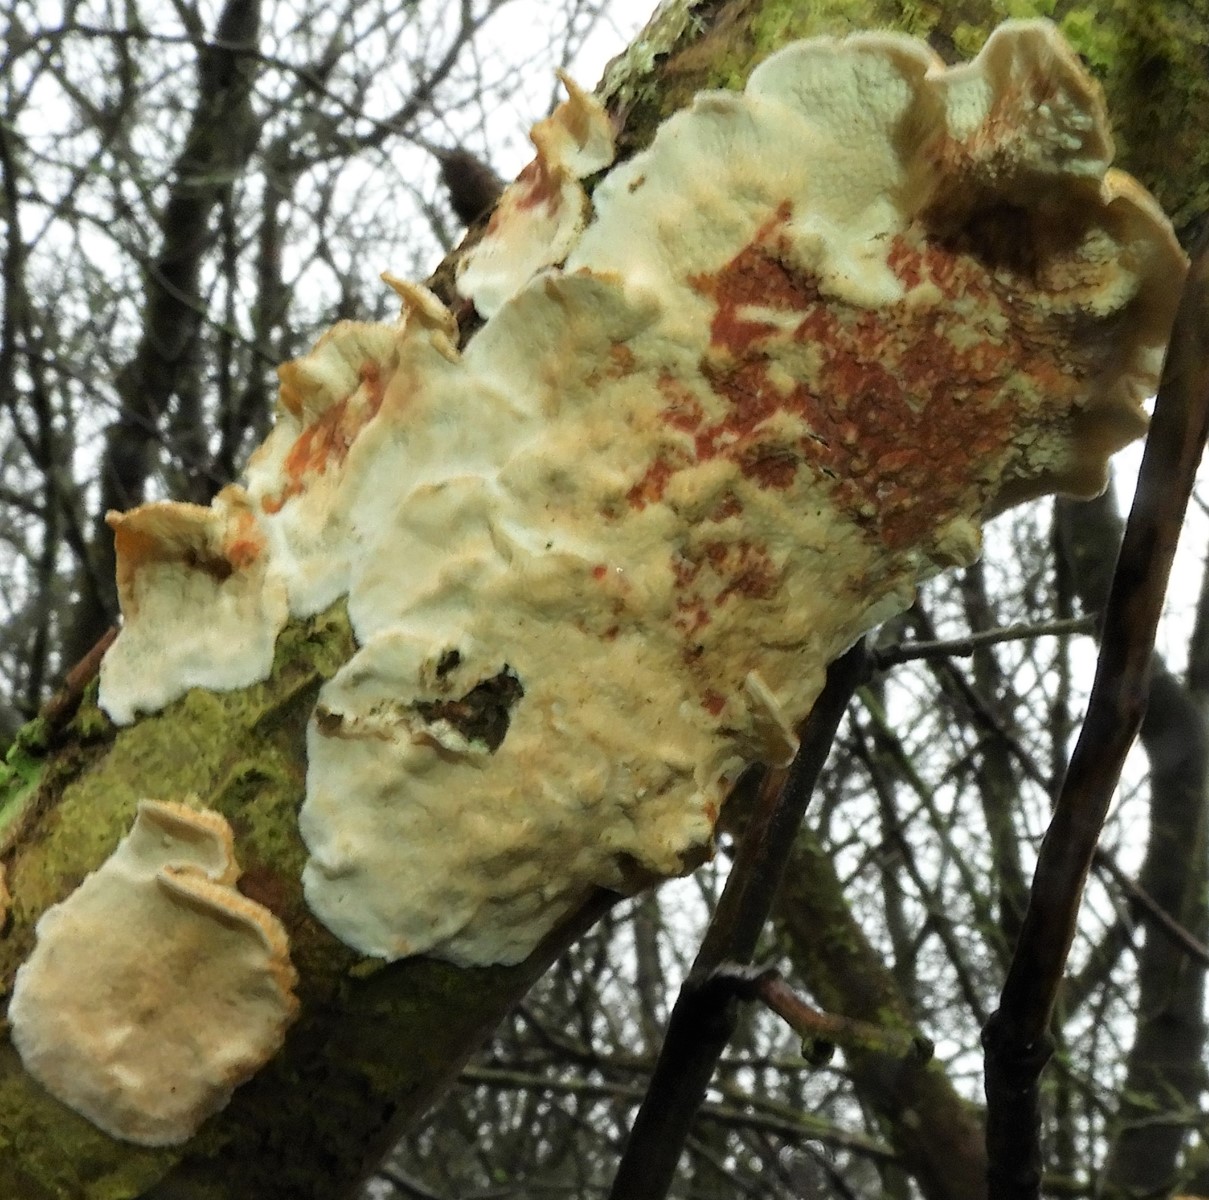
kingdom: Fungi
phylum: Basidiomycota
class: Agaricomycetes
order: Polyporales
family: Irpicaceae
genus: Byssomerulius
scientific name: Byssomerulius corium
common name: læder-åresvamp
